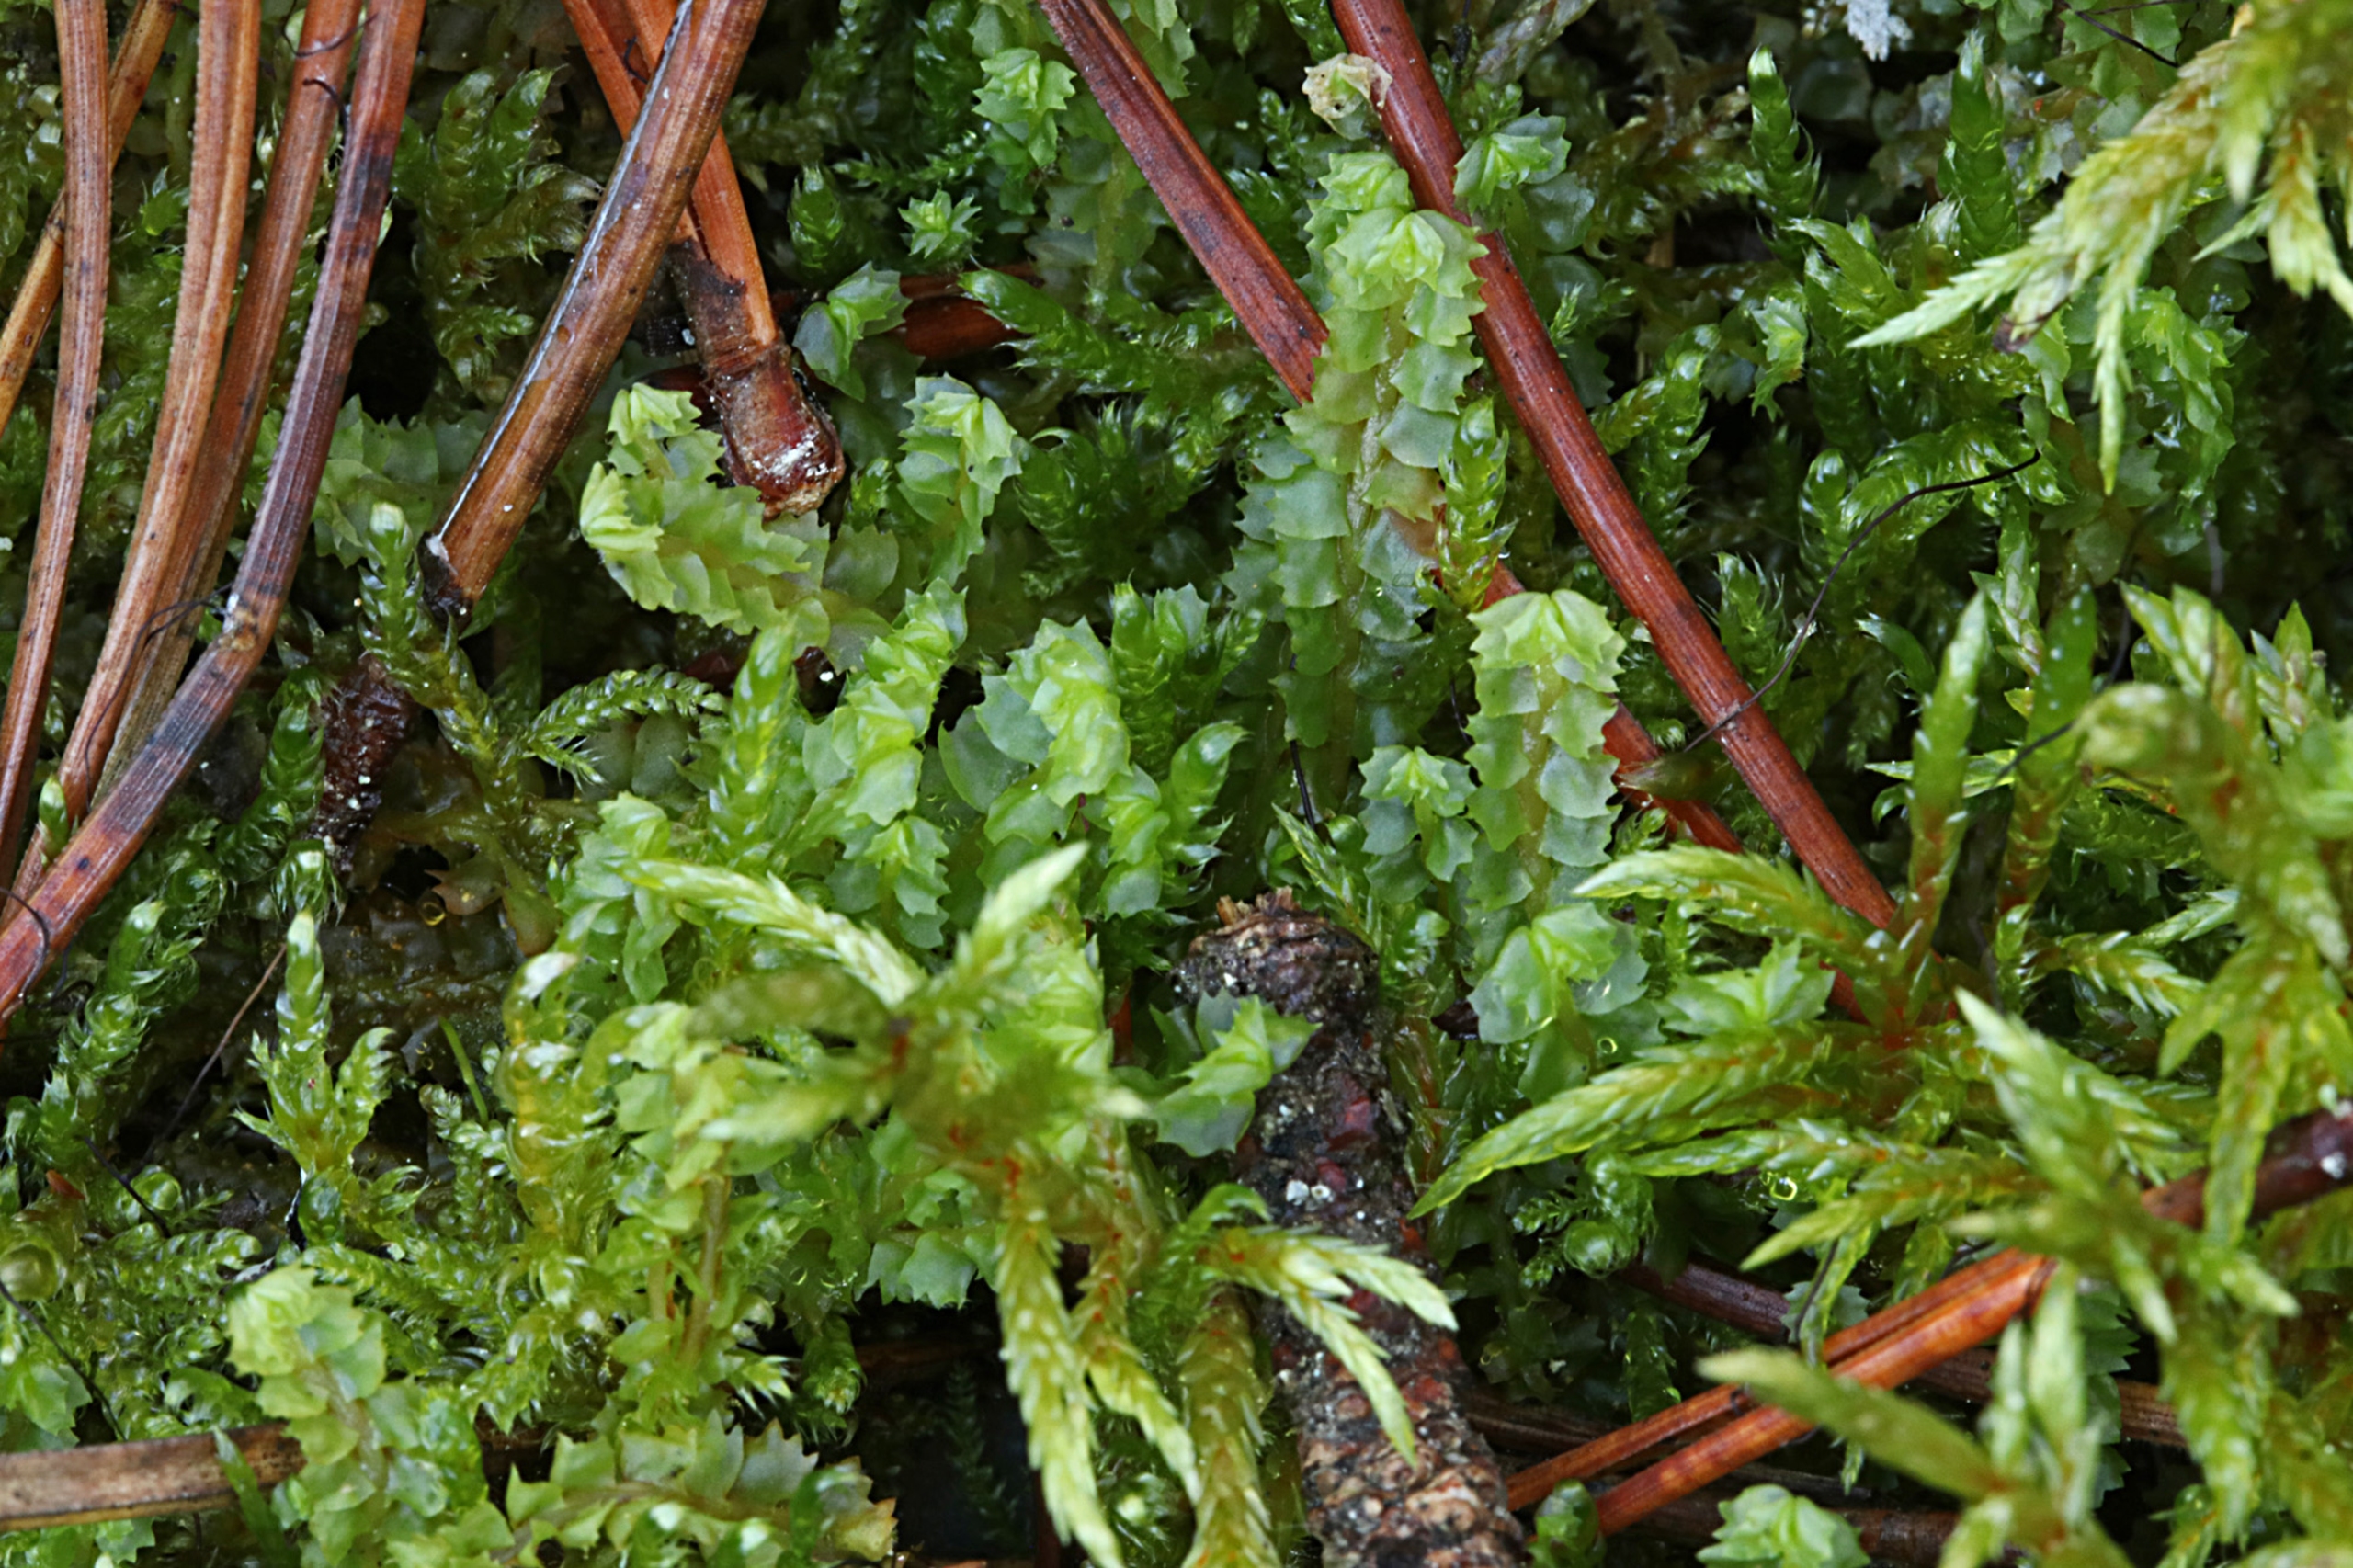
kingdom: Plantae
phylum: Marchantiophyta
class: Jungermanniopsida
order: Jungermanniales
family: Anastrophyllaceae
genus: Barbilophozia
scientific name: Barbilophozia barbata
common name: Skægget flerfligmos
